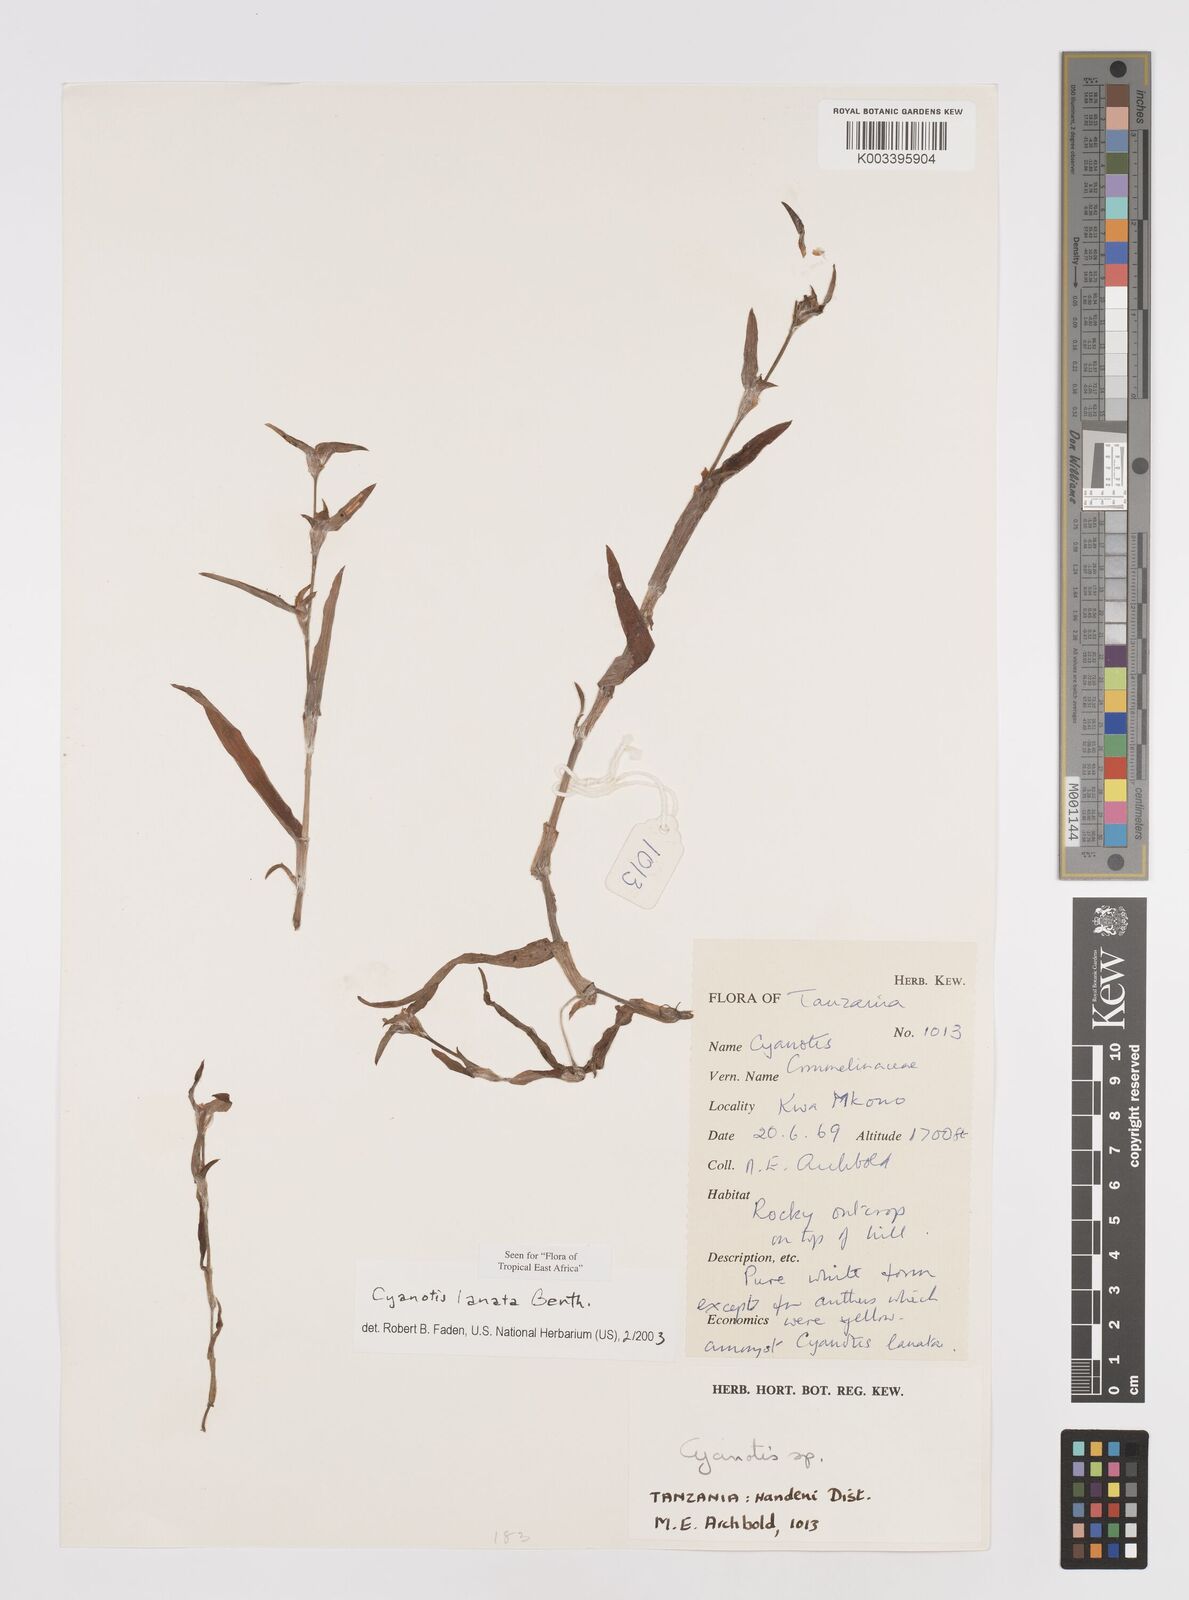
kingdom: Plantae
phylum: Tracheophyta
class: Liliopsida
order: Commelinales
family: Commelinaceae
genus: Cyanotis
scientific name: Cyanotis lanata
